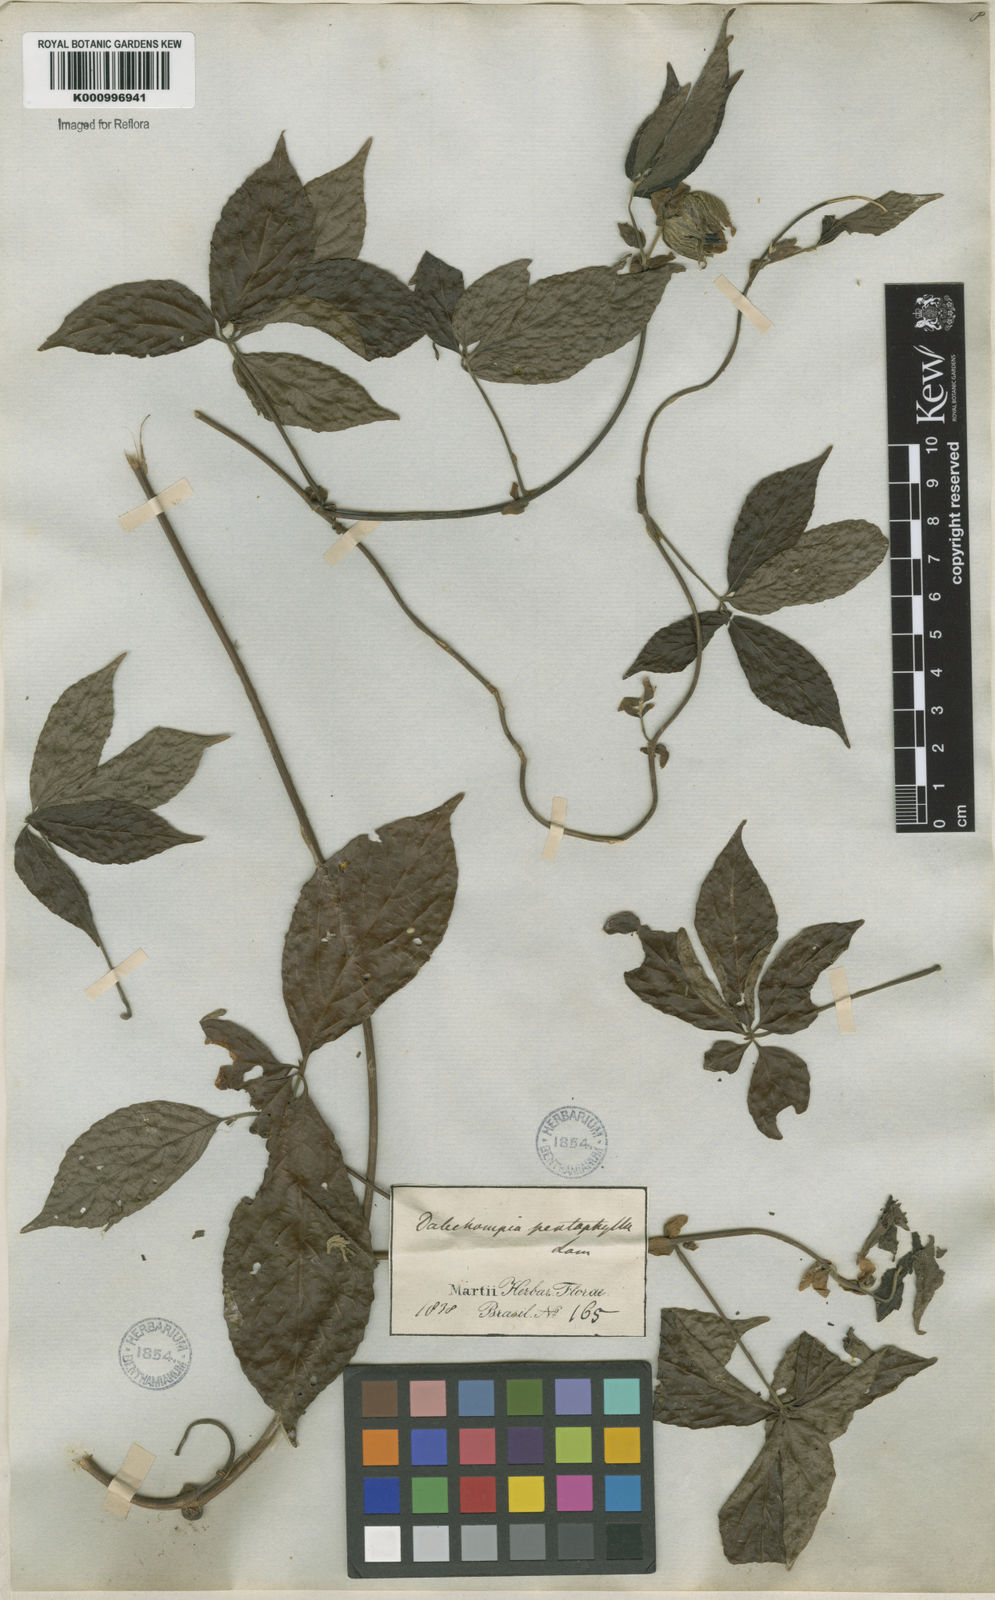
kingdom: Plantae
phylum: Tracheophyta
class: Magnoliopsida
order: Malpighiales
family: Euphorbiaceae
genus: Dalechampia
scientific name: Dalechampia pentaphylla
